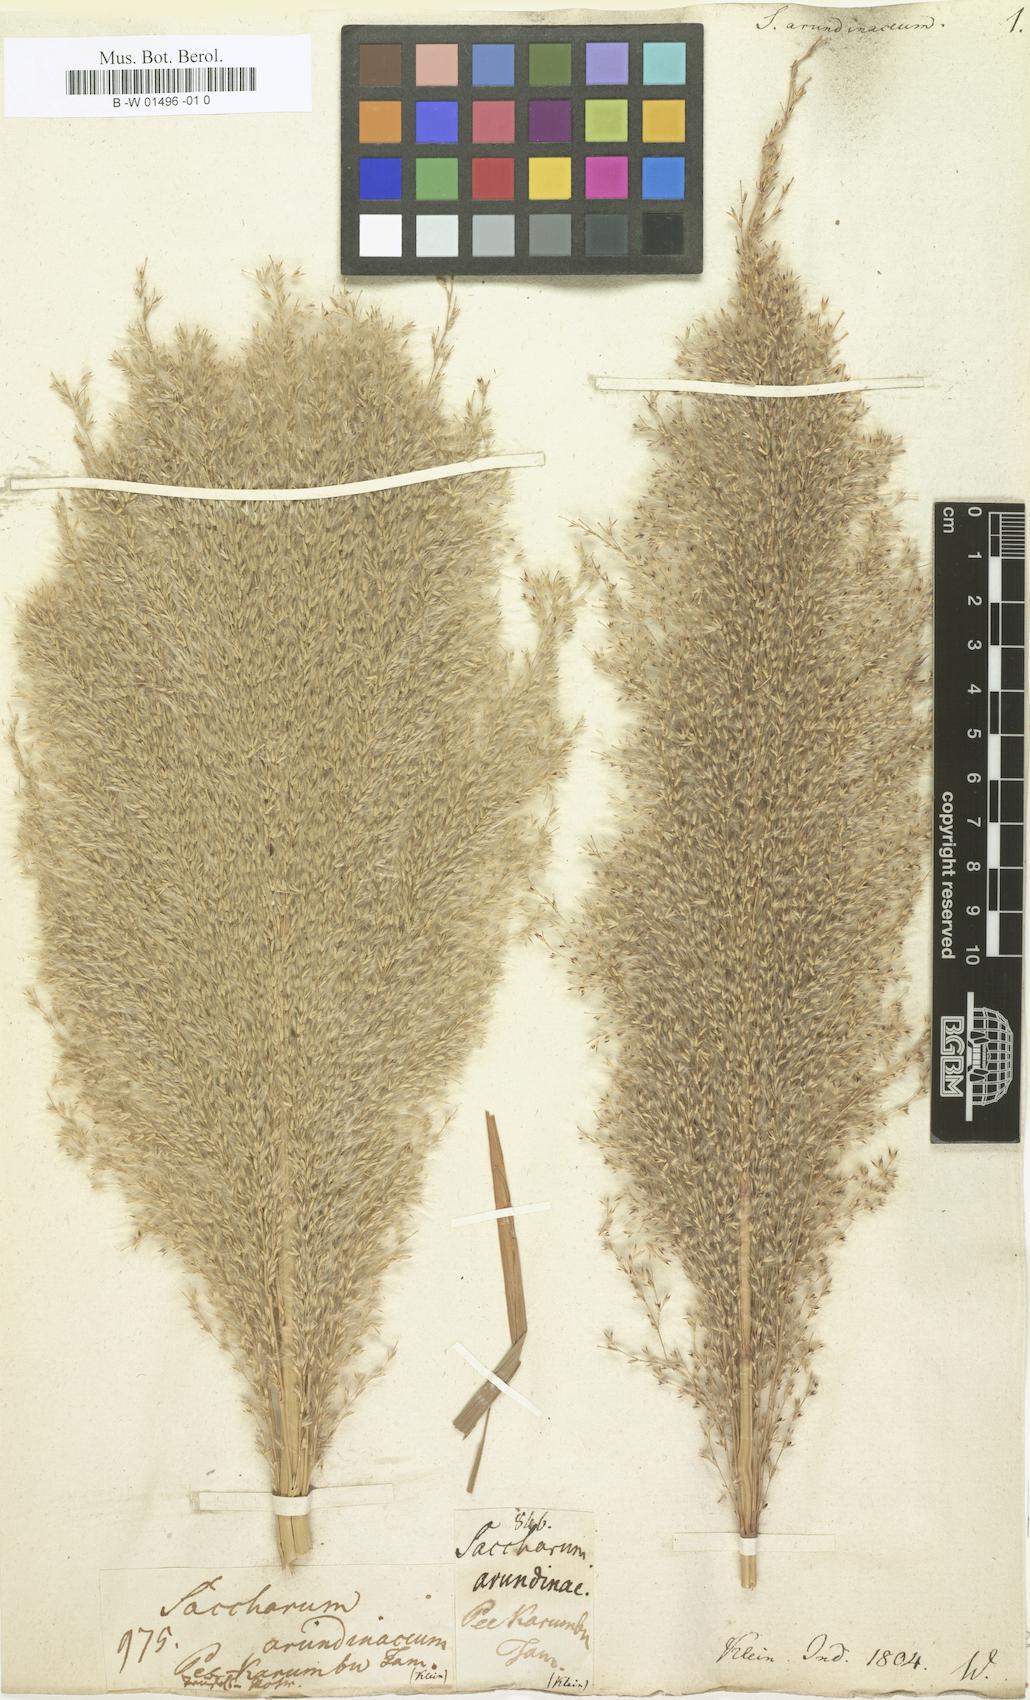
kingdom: Plantae
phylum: Tracheophyta
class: Liliopsida
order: Poales
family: Poaceae
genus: Tripidium
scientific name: Tripidium arundinaceum
